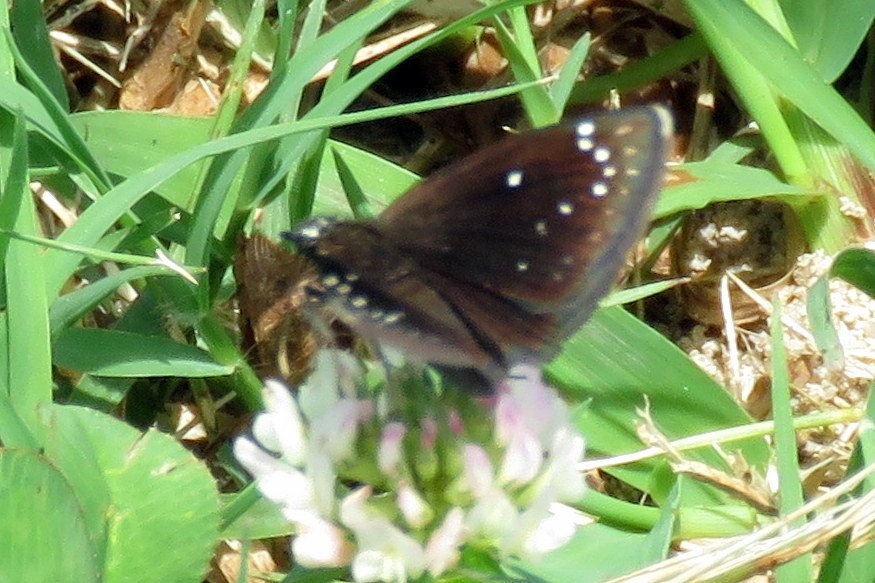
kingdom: Animalia
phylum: Arthropoda
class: Insecta
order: Lepidoptera
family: Hesperiidae
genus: Pholisora
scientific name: Pholisora catullus
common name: Common Sootywing
